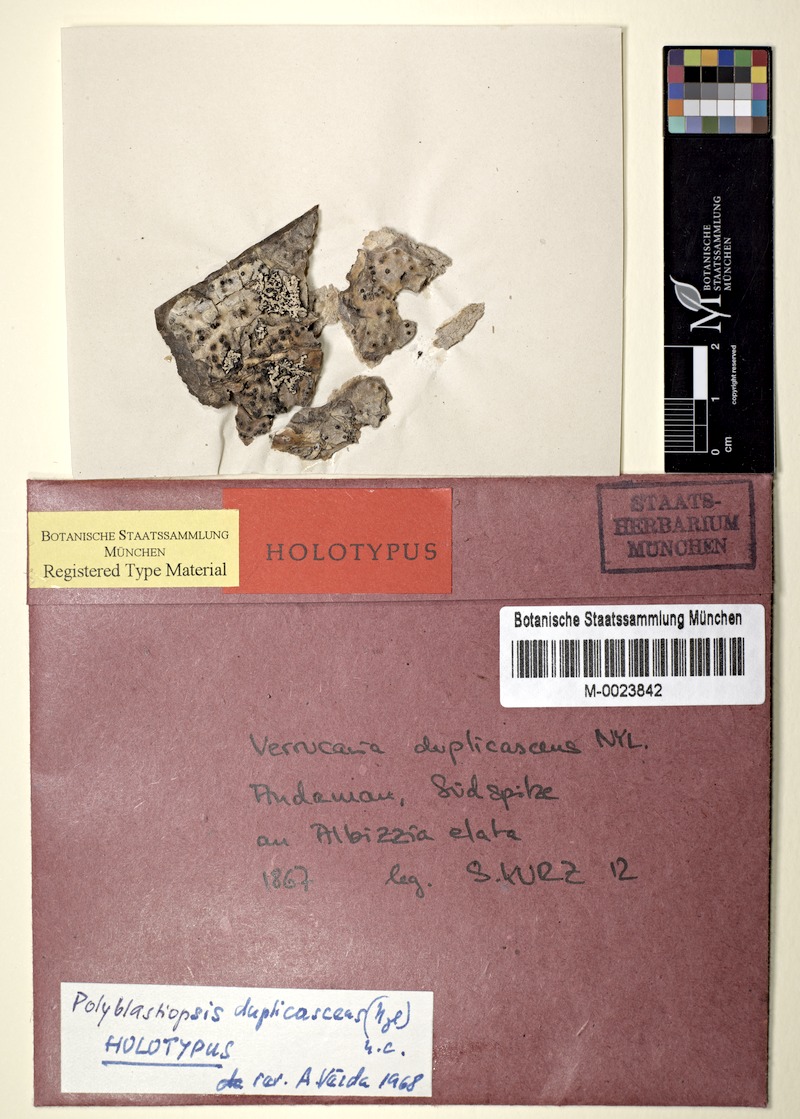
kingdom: Fungi
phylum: Ascomycota
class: Lecanoromycetes
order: Ostropales
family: Porinaceae
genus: Clathroporina
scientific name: Clathroporina duplicascens
